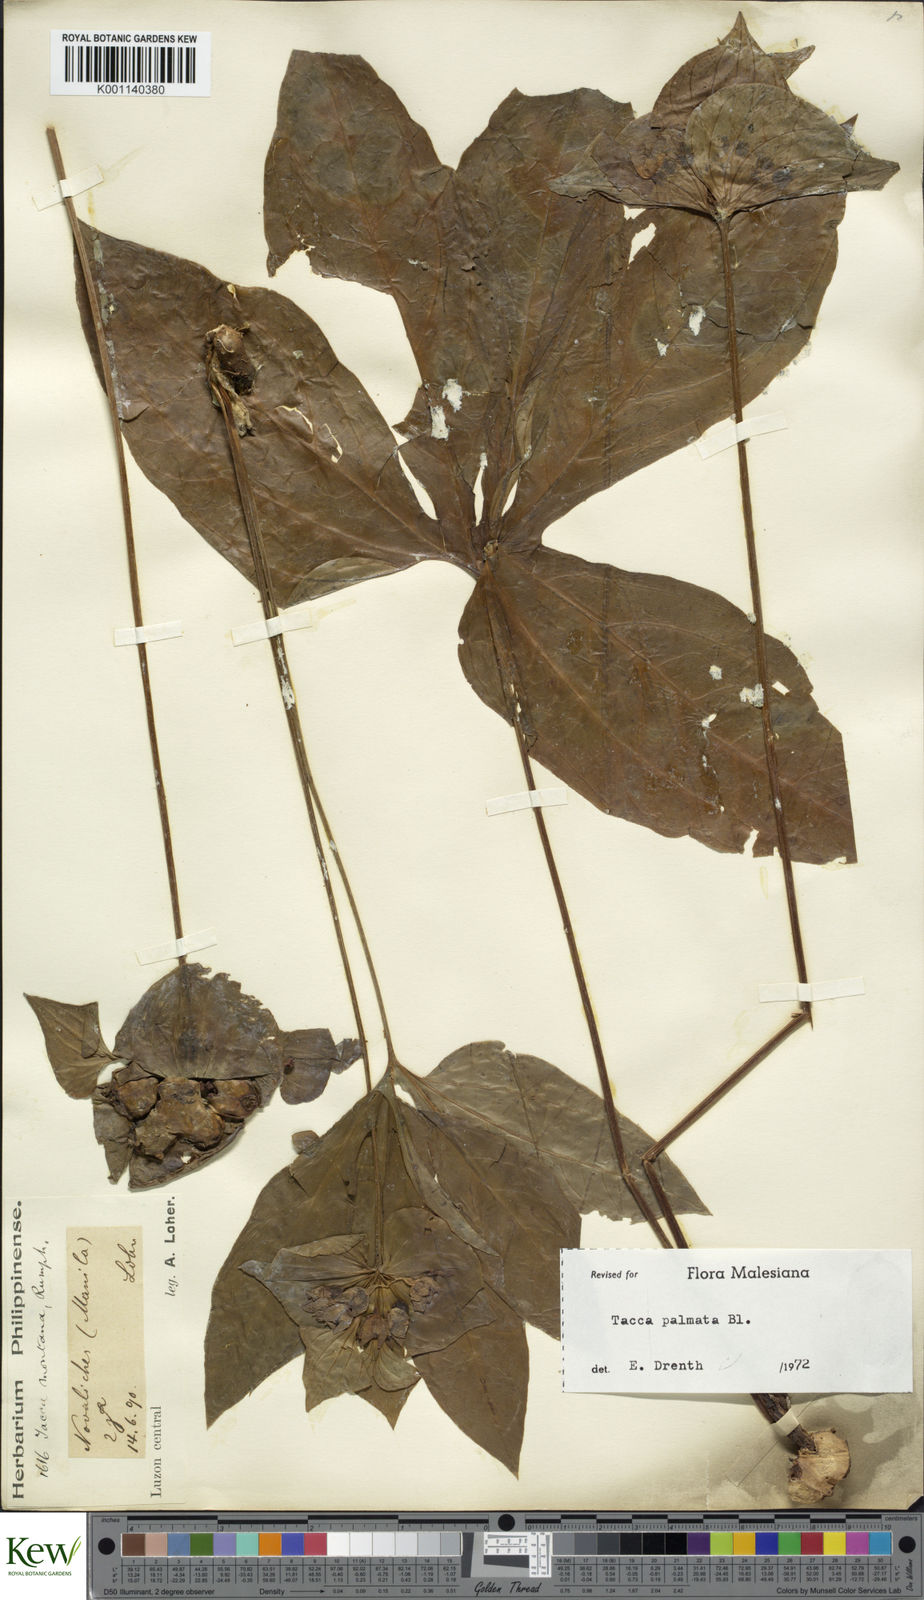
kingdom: Plantae
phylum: Tracheophyta
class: Liliopsida
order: Dioscoreales
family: Dioscoreaceae
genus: Tacca
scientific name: Tacca palmata
